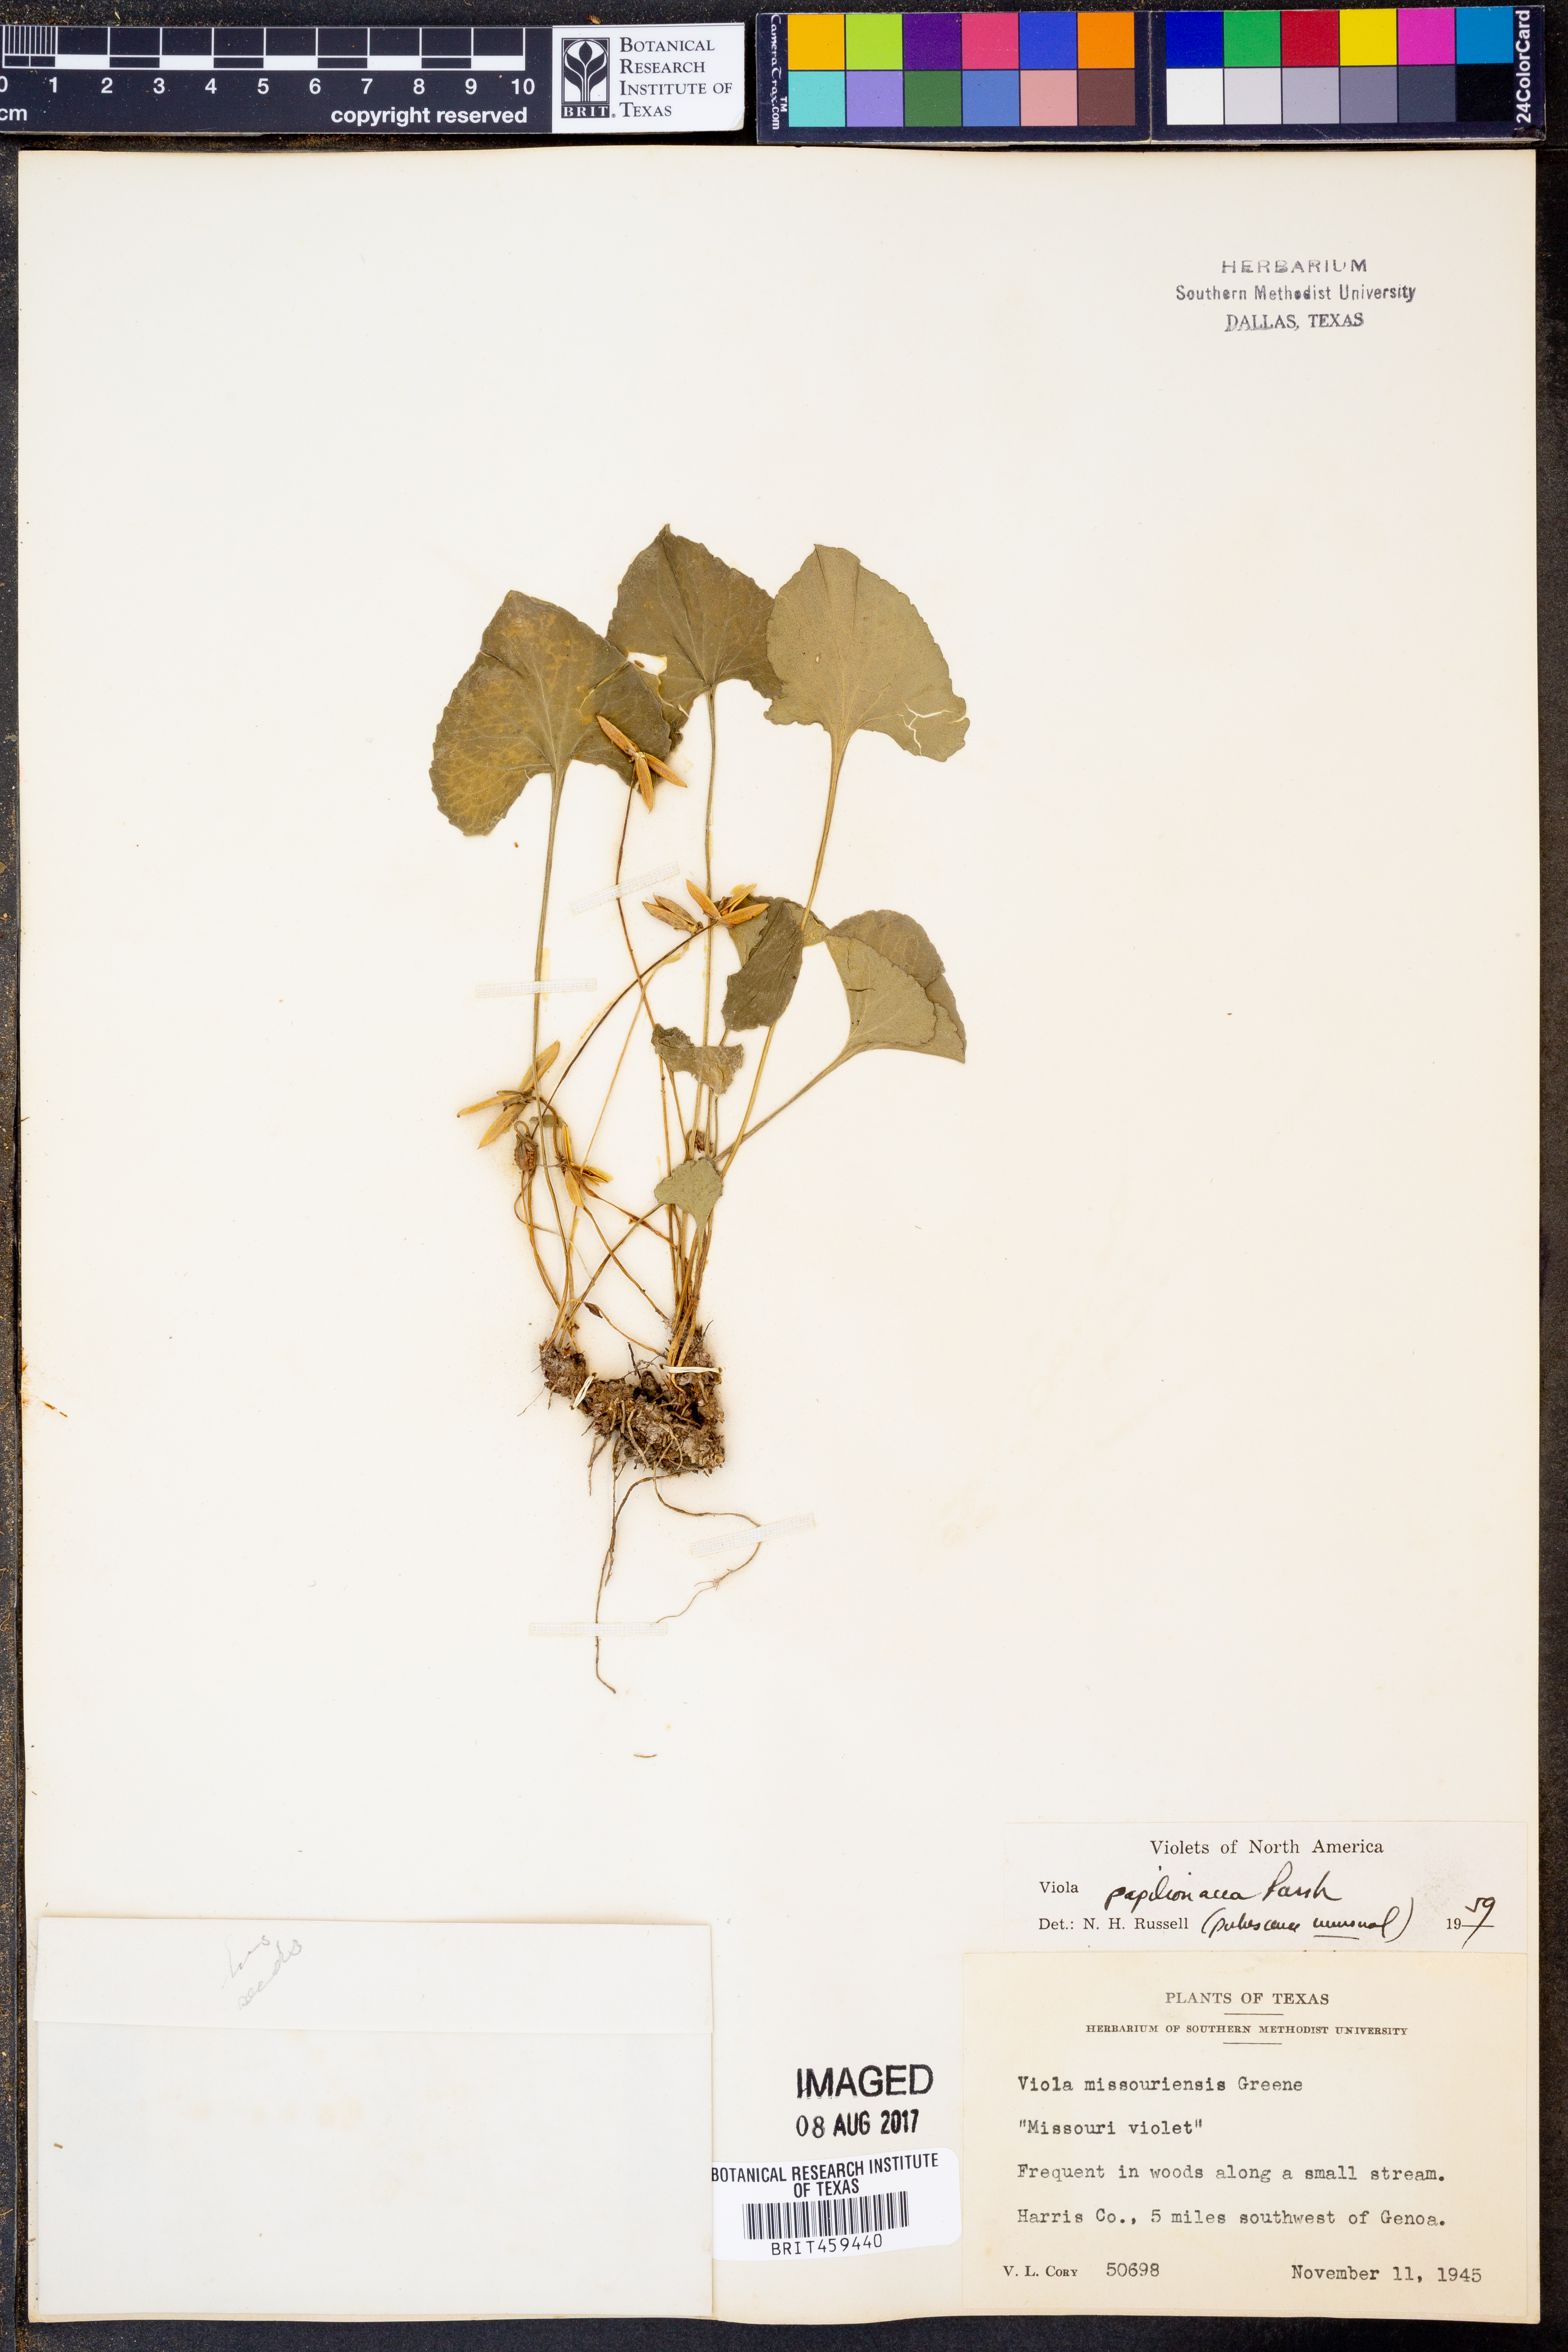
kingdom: Plantae
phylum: Tracheophyta
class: Magnoliopsida
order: Malpighiales
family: Violaceae
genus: Viola
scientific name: Viola sororia
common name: Dooryard violet
